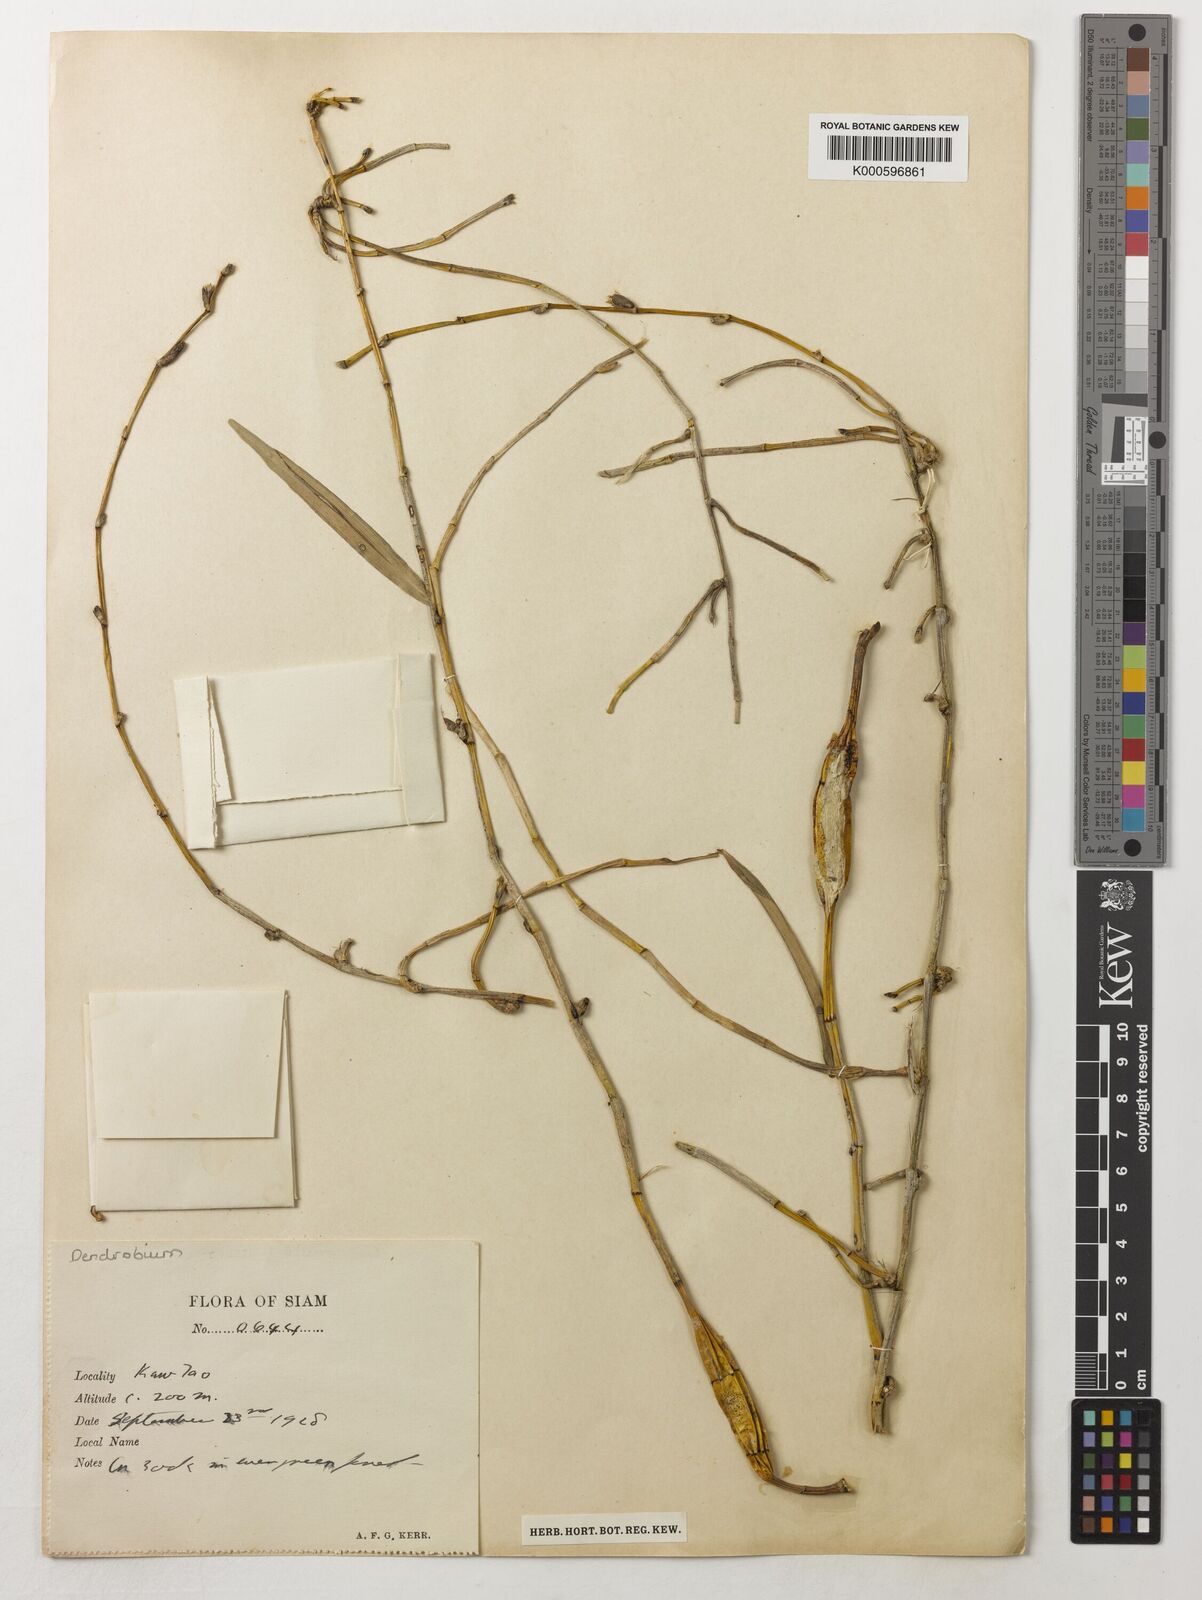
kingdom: Plantae
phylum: Tracheophyta
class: Liliopsida
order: Asparagales
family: Orchidaceae
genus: Dendrobium
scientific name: Dendrobium
